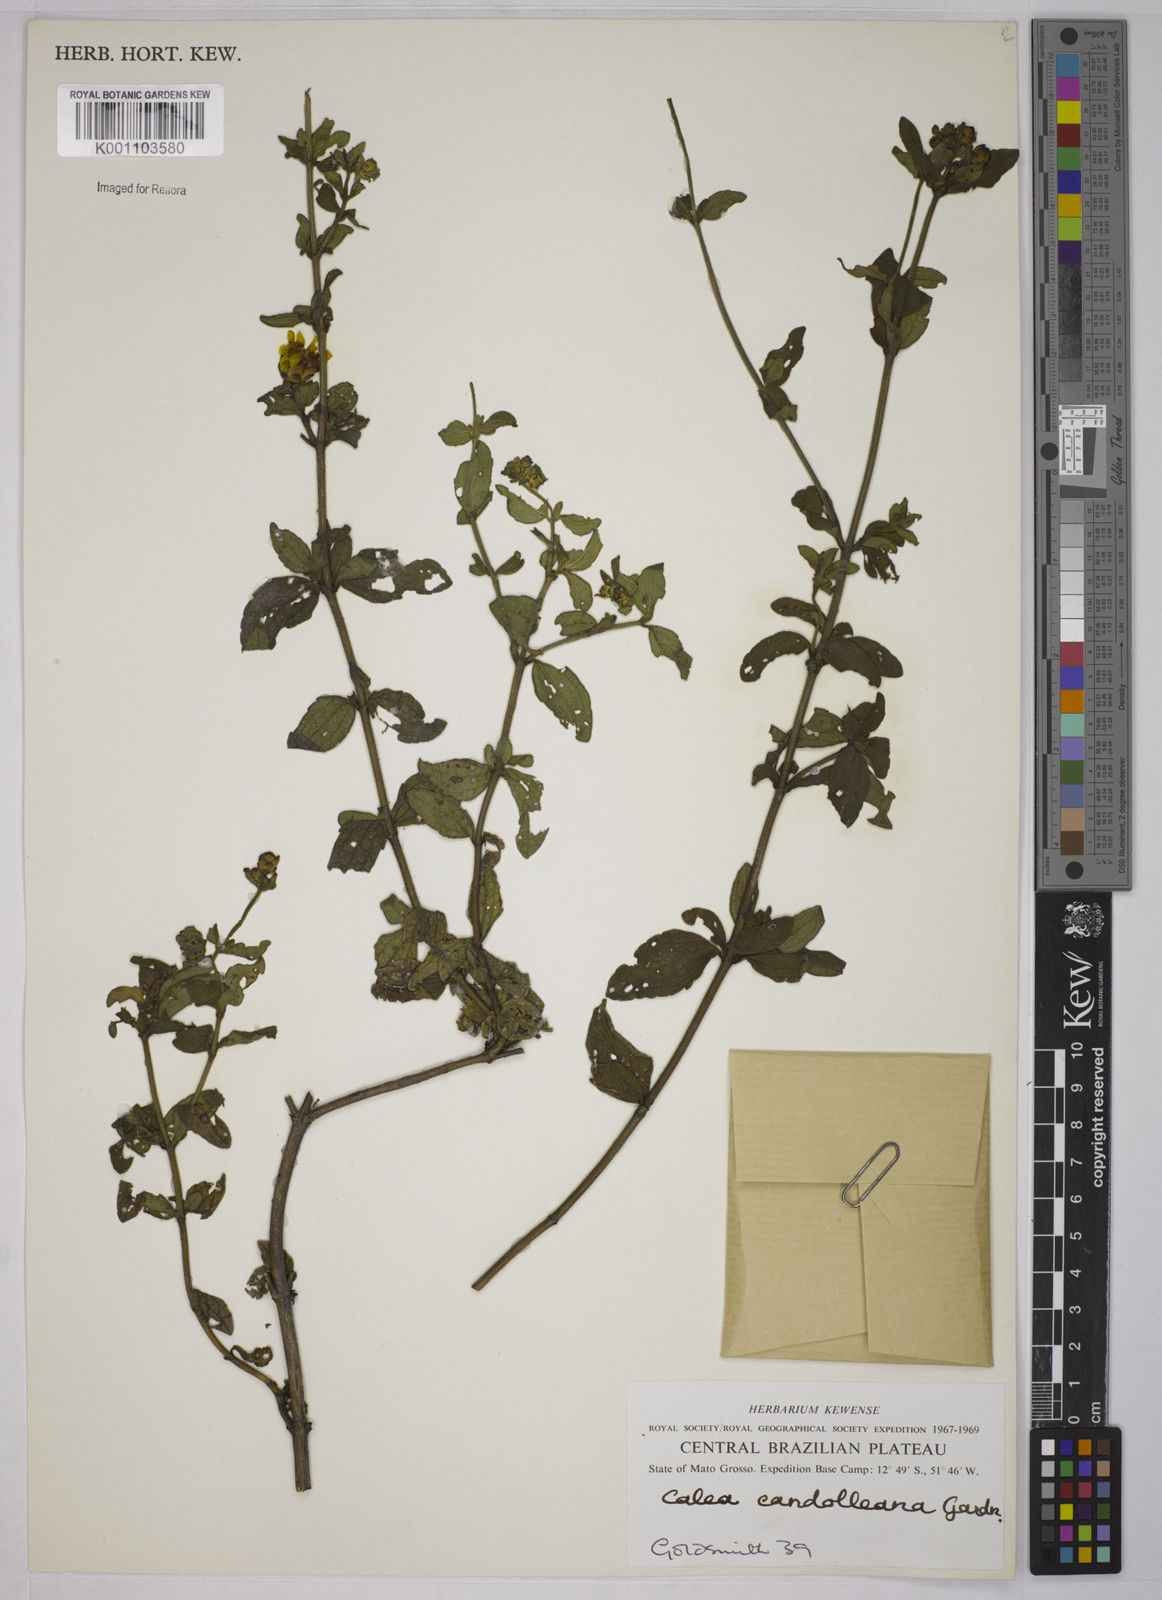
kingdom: Plantae
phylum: Tracheophyta
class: Magnoliopsida
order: Asterales
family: Asteraceae
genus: Calea
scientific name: Calea candolleana
